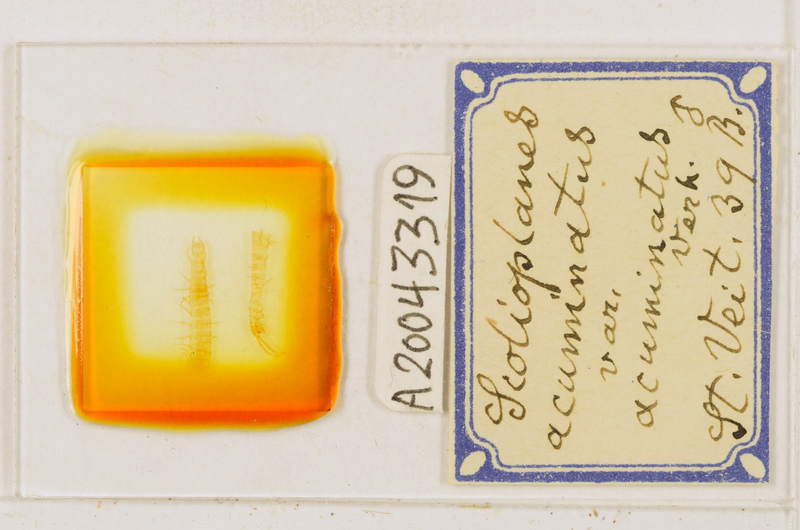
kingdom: Animalia
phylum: Arthropoda
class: Chilopoda
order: Geophilomorpha
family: Linotaeniidae
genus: Strigamia
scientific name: Strigamia acuminata
